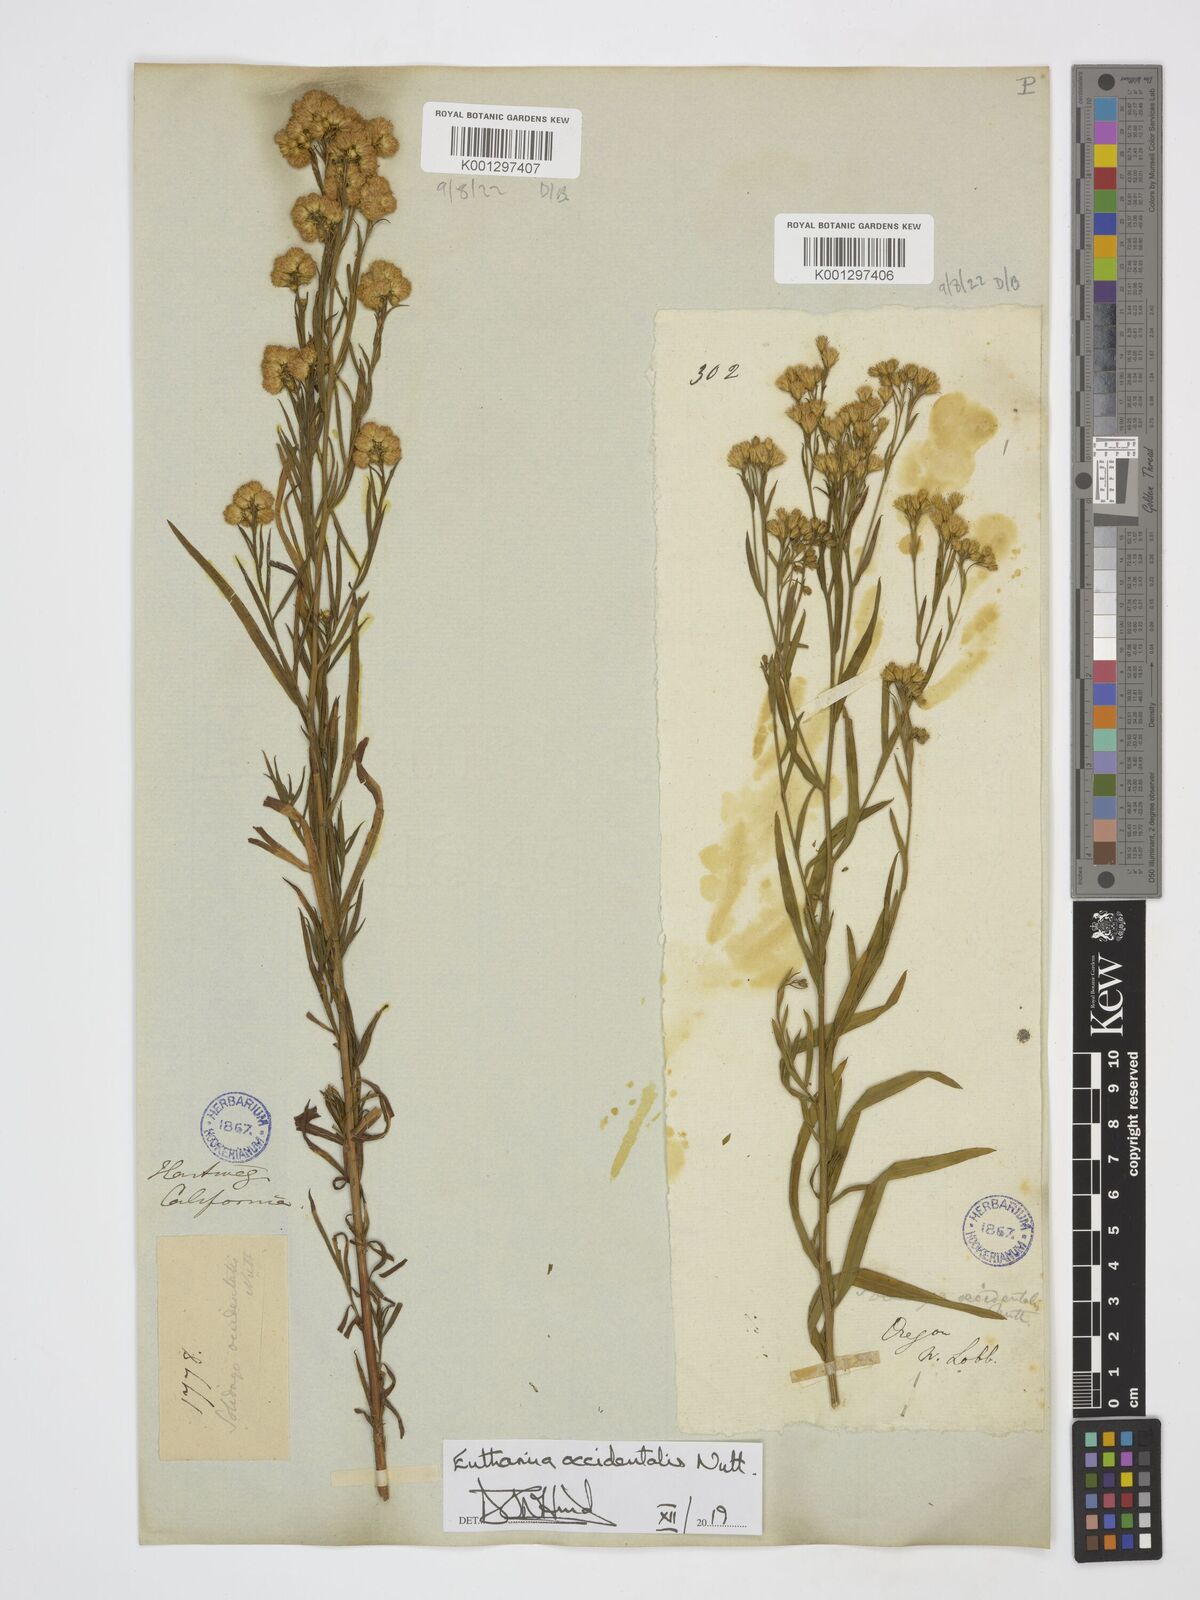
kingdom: Plantae
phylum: Tracheophyta
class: Magnoliopsida
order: Asterales
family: Asteraceae
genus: Euthamia
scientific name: Euthamia occidentalis
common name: Western goldentop
